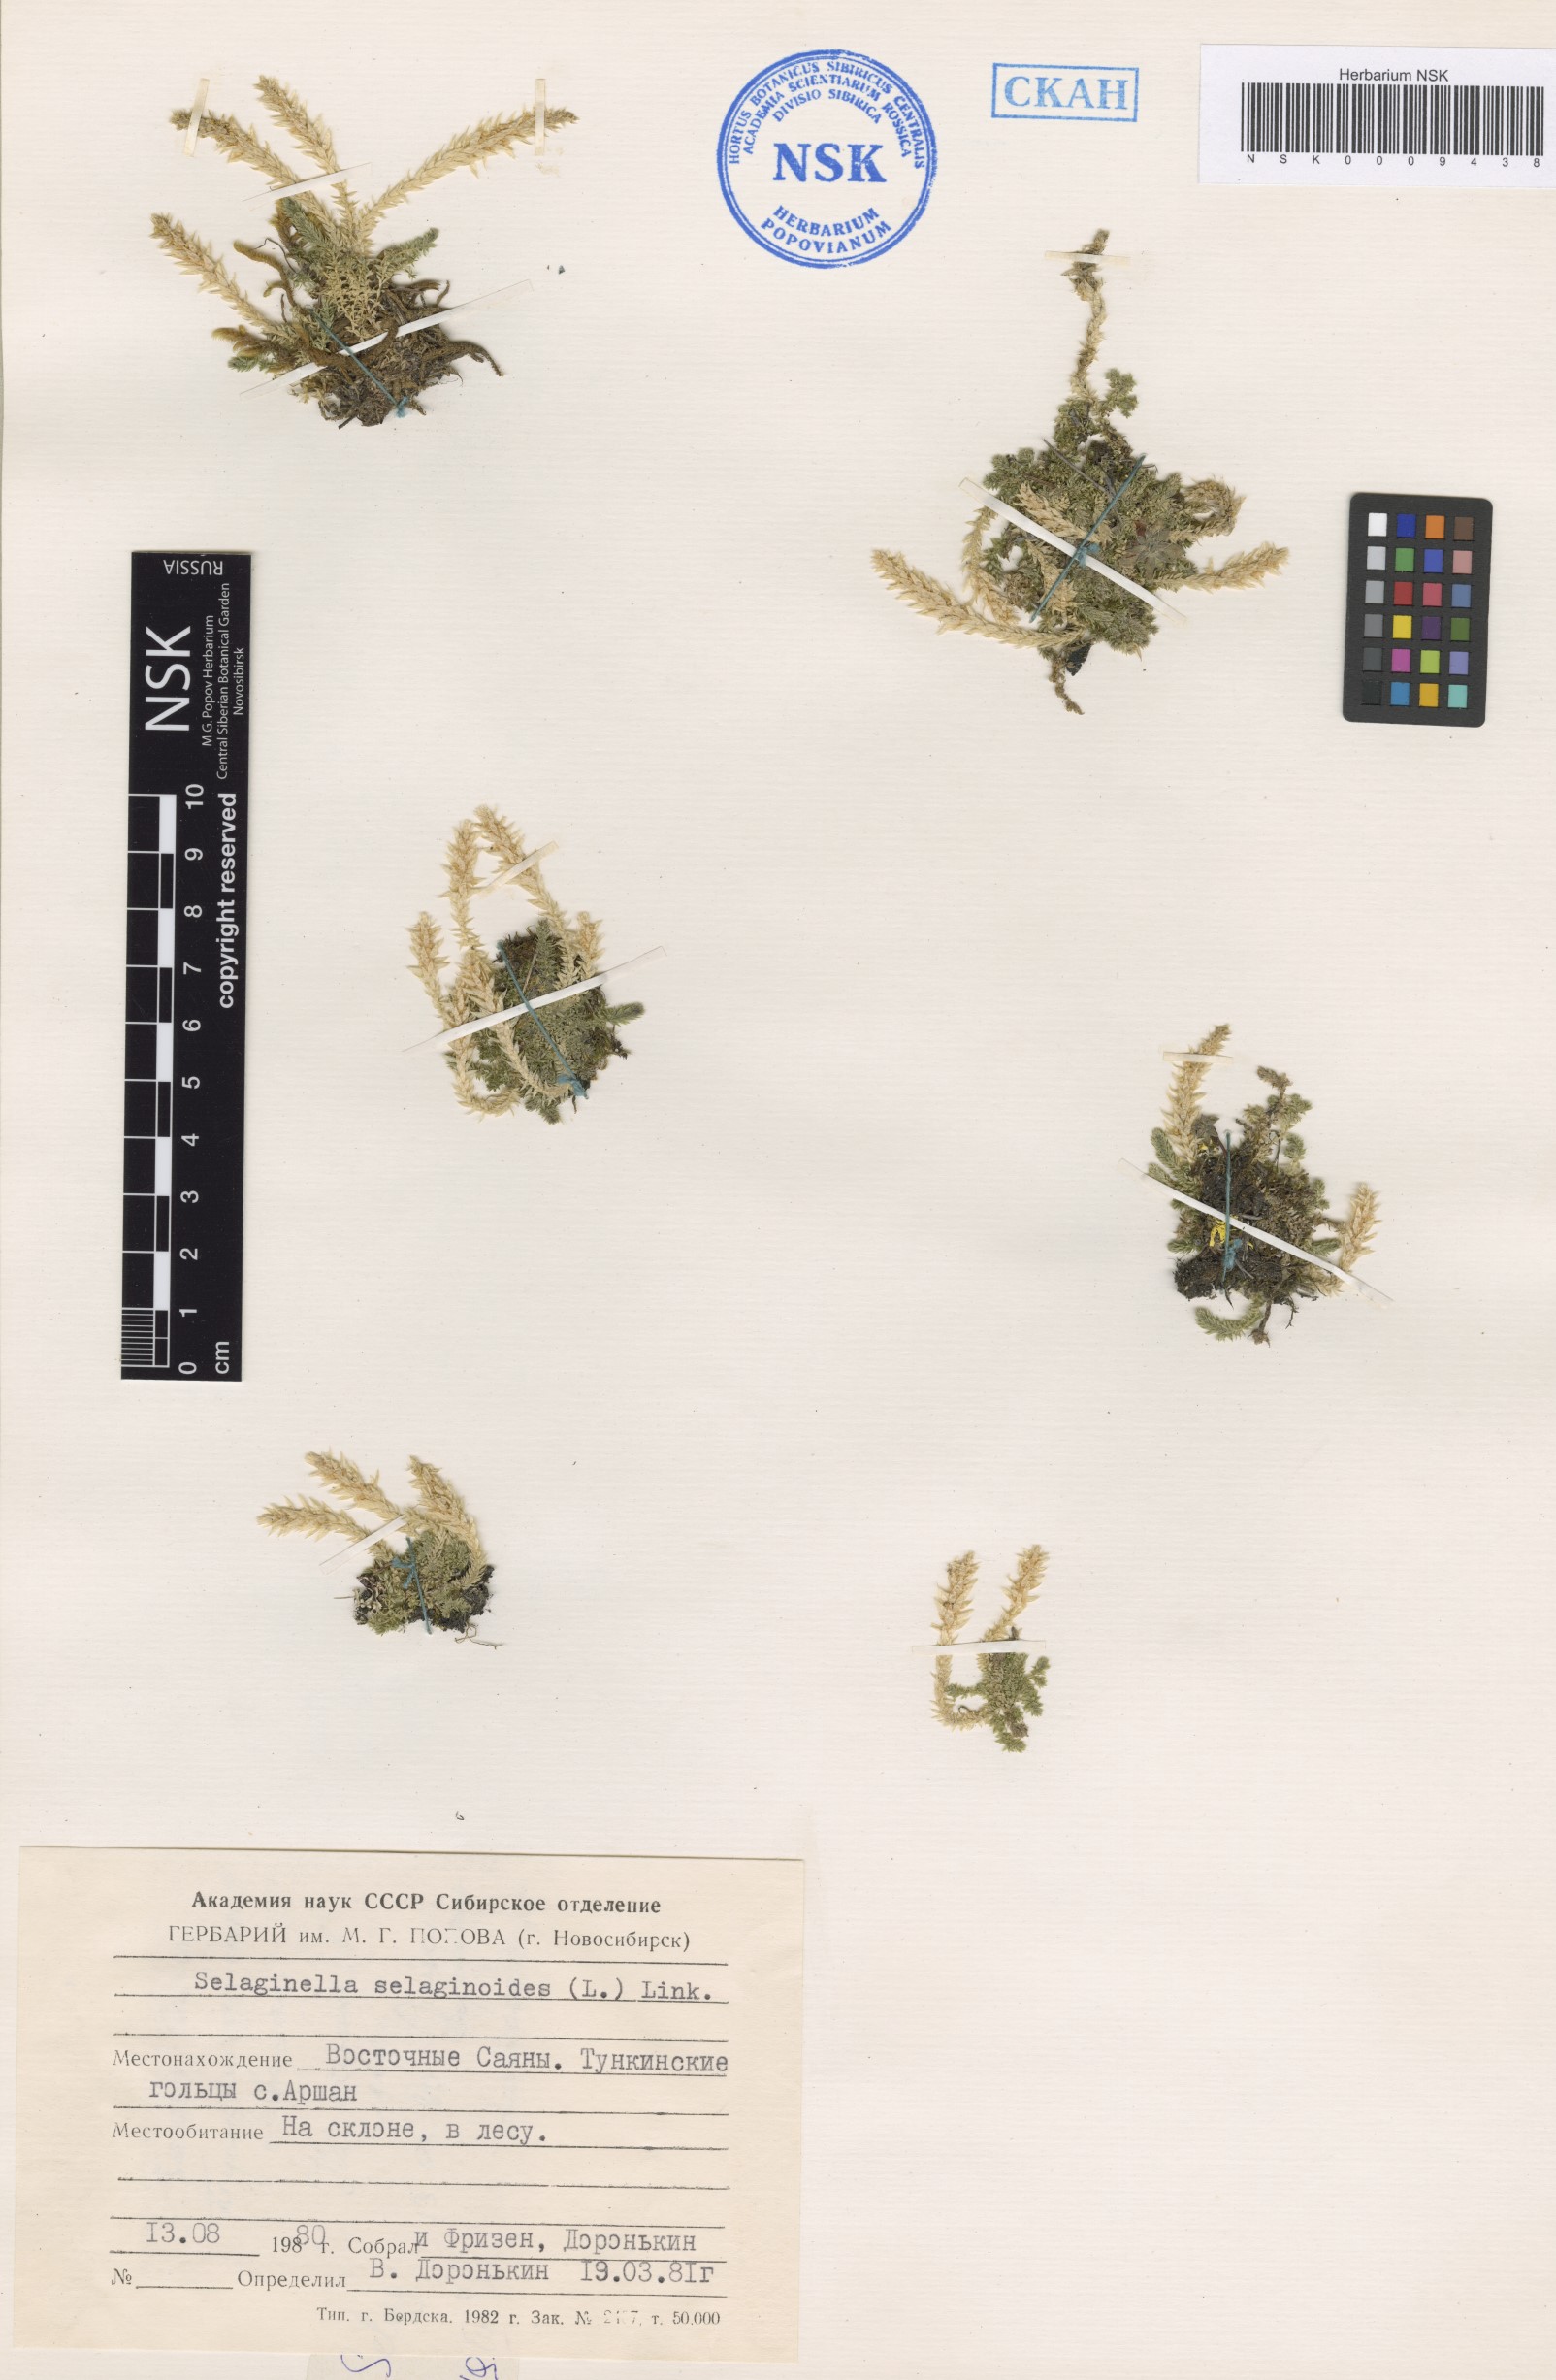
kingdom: Plantae
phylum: Tracheophyta
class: Lycopodiopsida
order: Selaginellales
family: Selaginellaceae
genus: Selaginella
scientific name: Selaginella selaginoides
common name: Prickly mountain-moss
